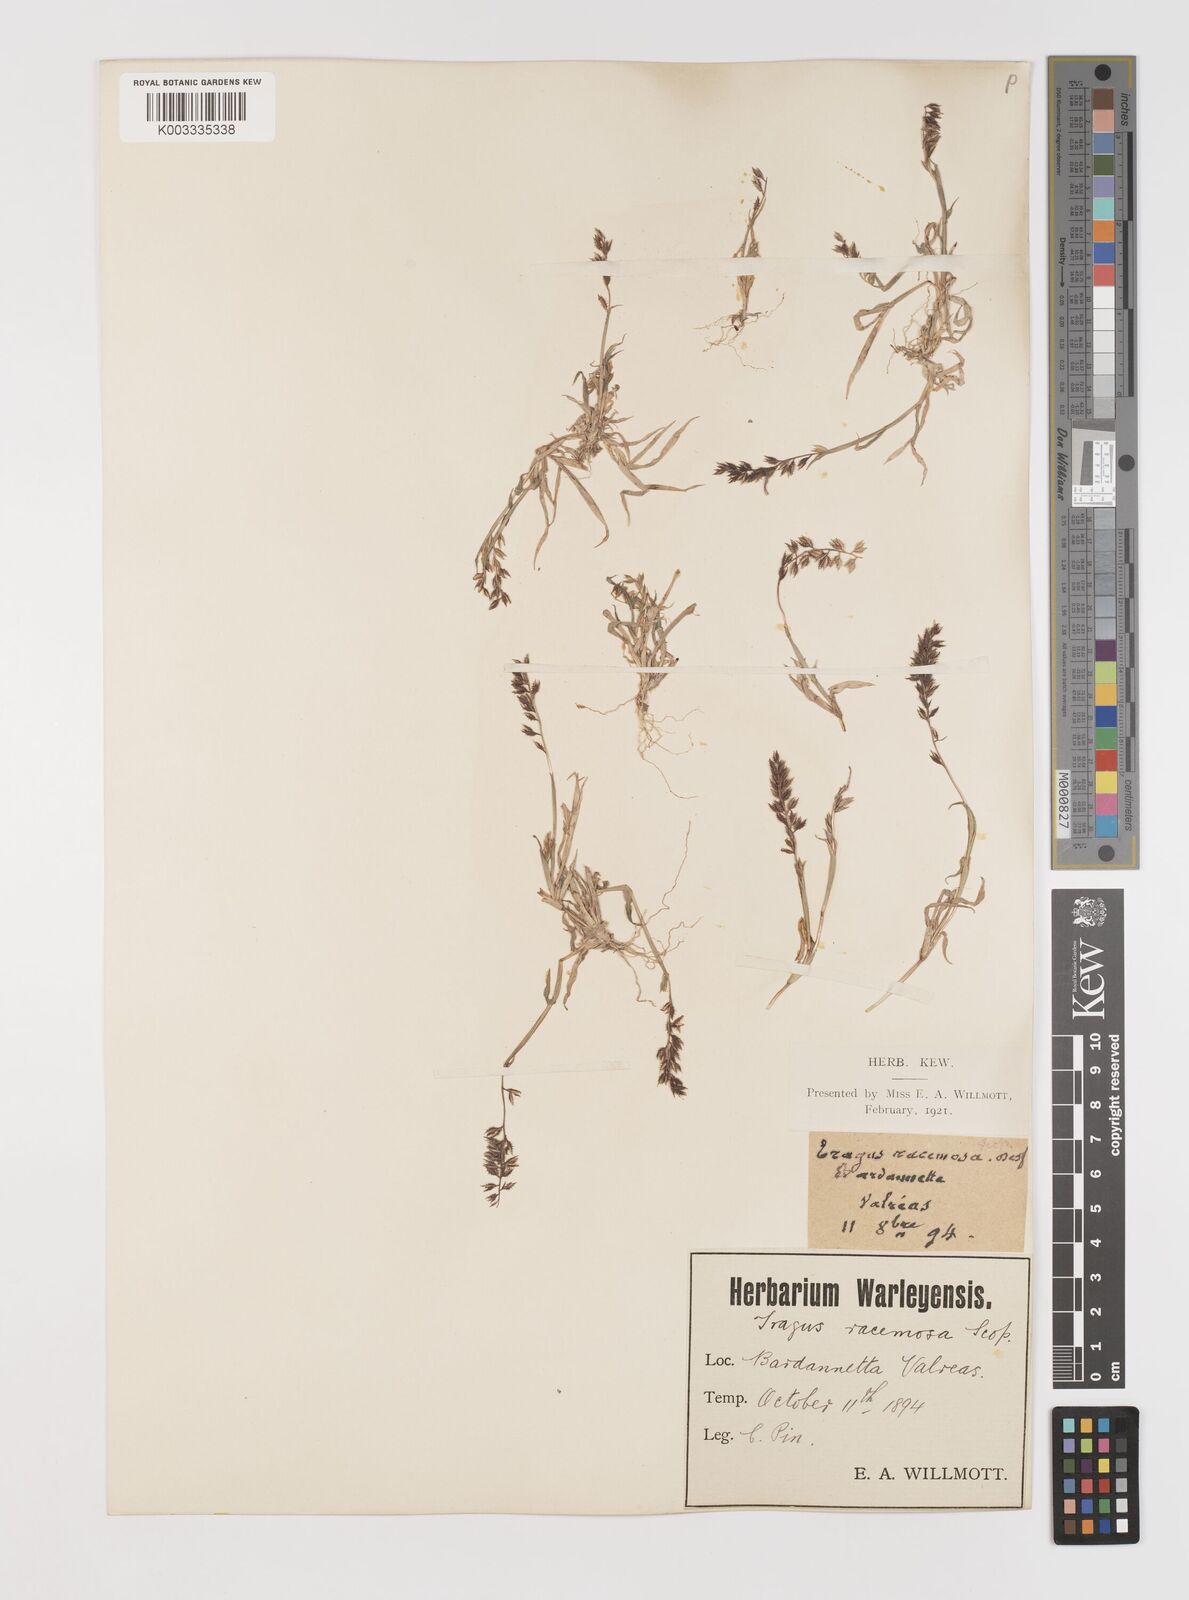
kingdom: Plantae
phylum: Tracheophyta
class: Liliopsida
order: Poales
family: Poaceae
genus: Tragus
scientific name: Tragus racemosus
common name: European bur-grass
